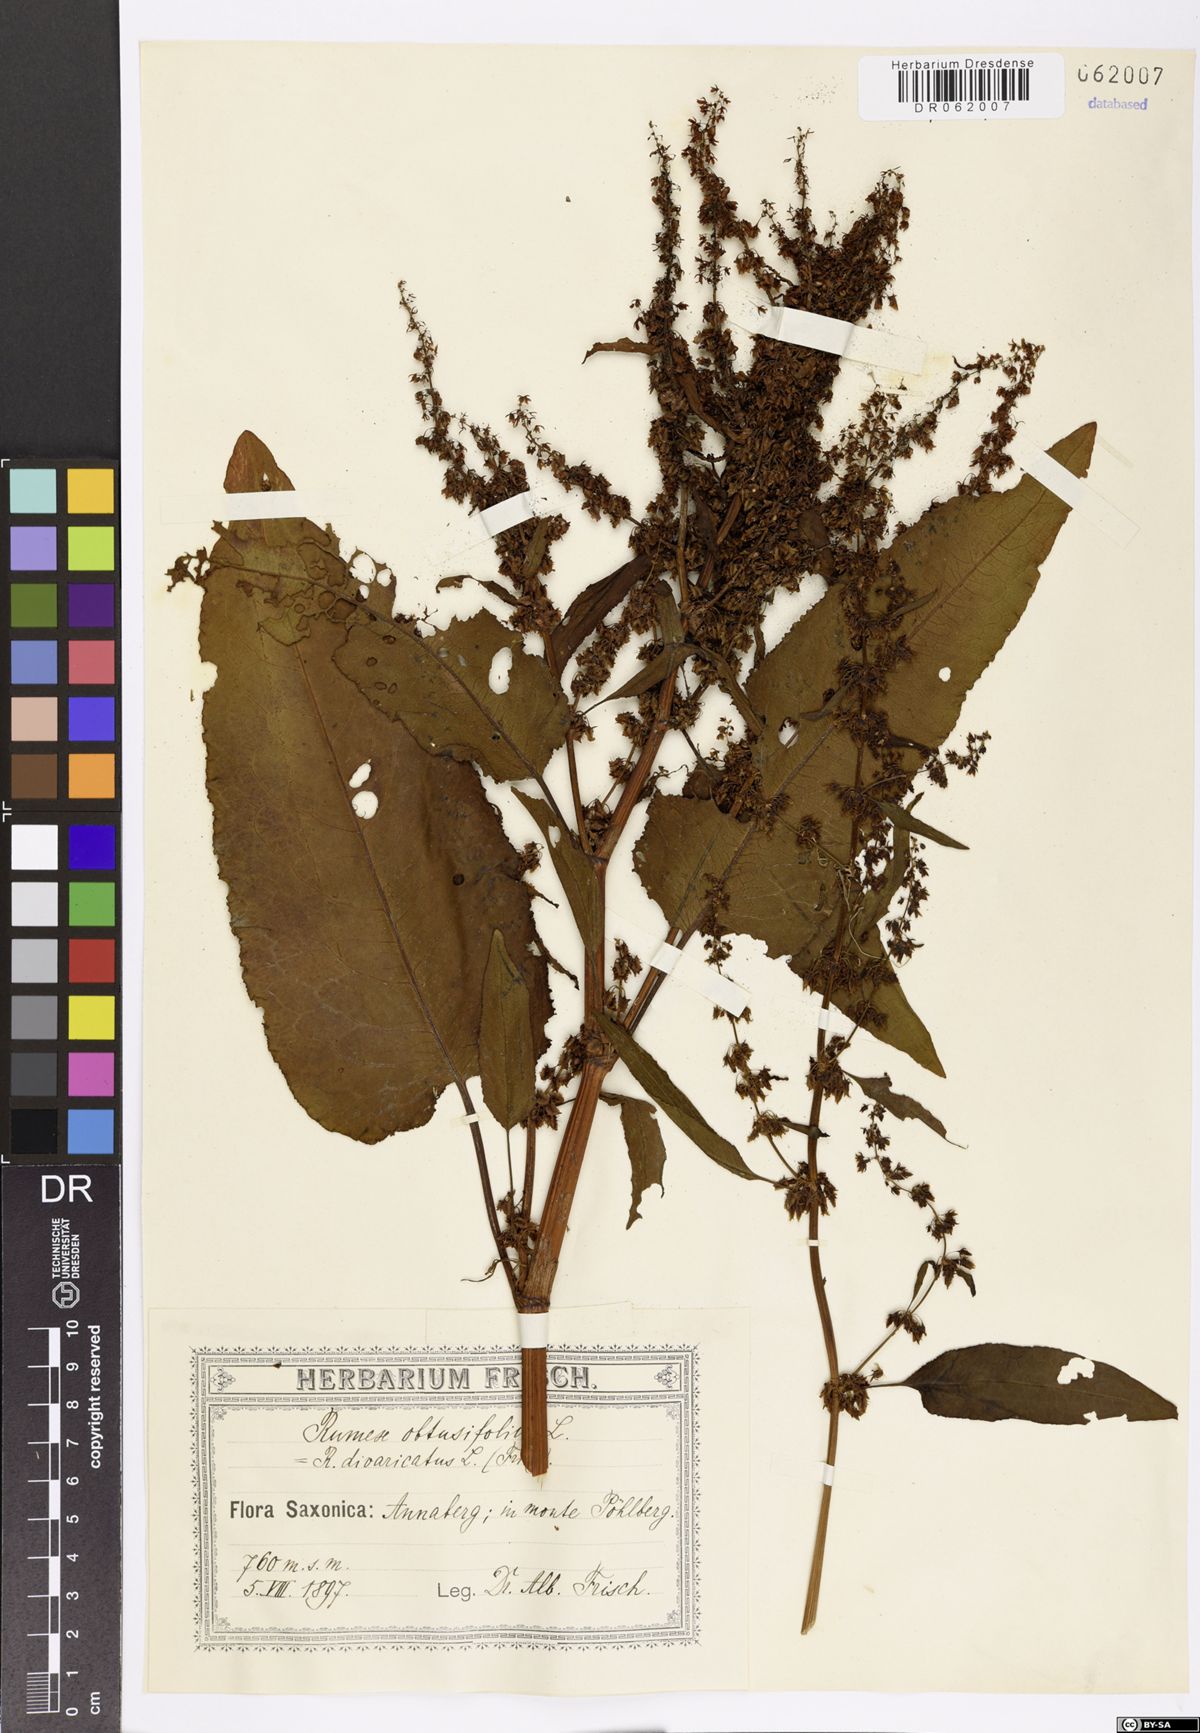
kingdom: Plantae
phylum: Tracheophyta
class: Magnoliopsida
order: Caryophyllales
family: Polygonaceae
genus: Rumex
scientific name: Rumex obtusifolius
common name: Bitter dock
